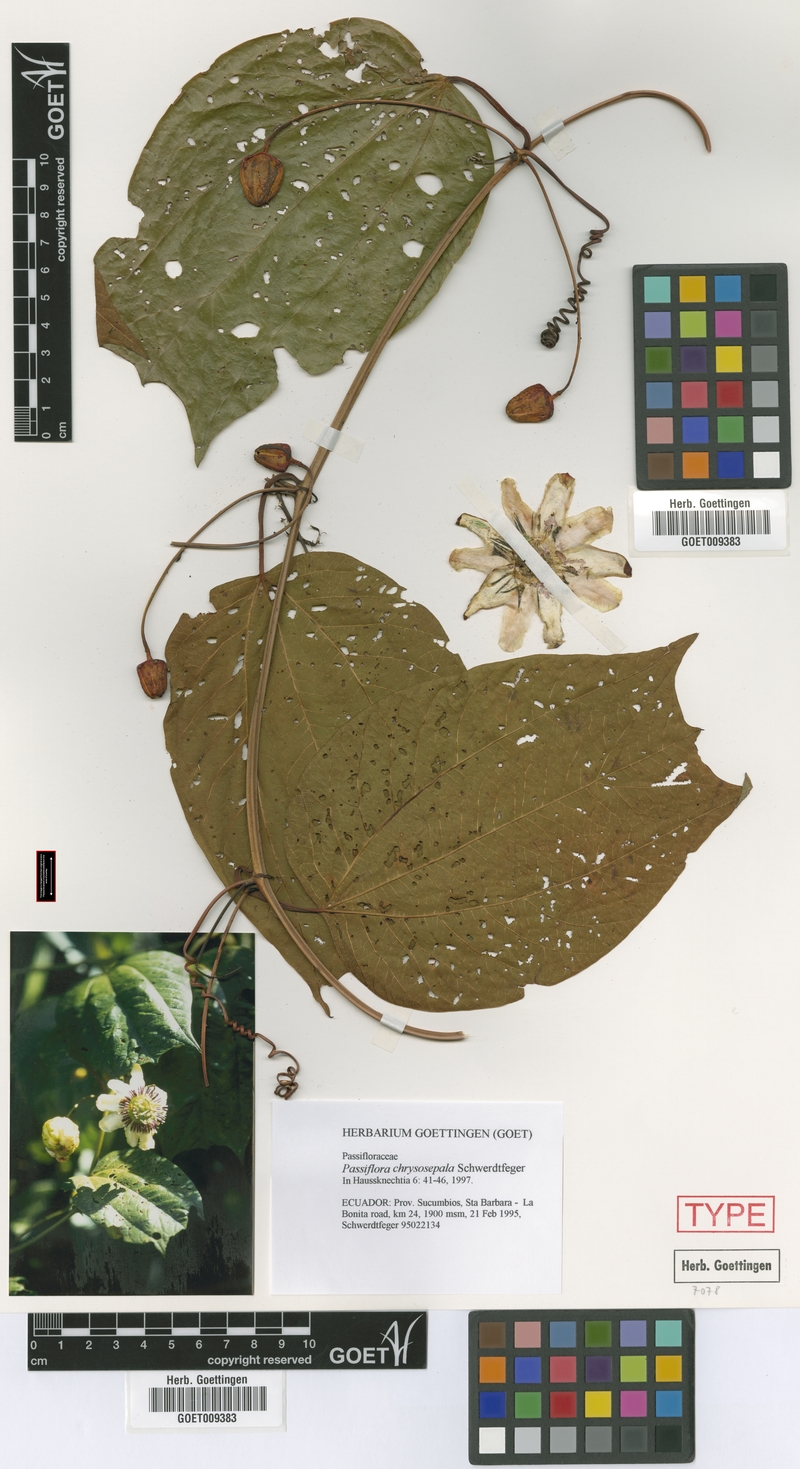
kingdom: Plantae
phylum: Tracheophyta
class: Magnoliopsida
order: Malpighiales
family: Passifloraceae
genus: Passiflora
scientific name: Passiflora chrysosepala
